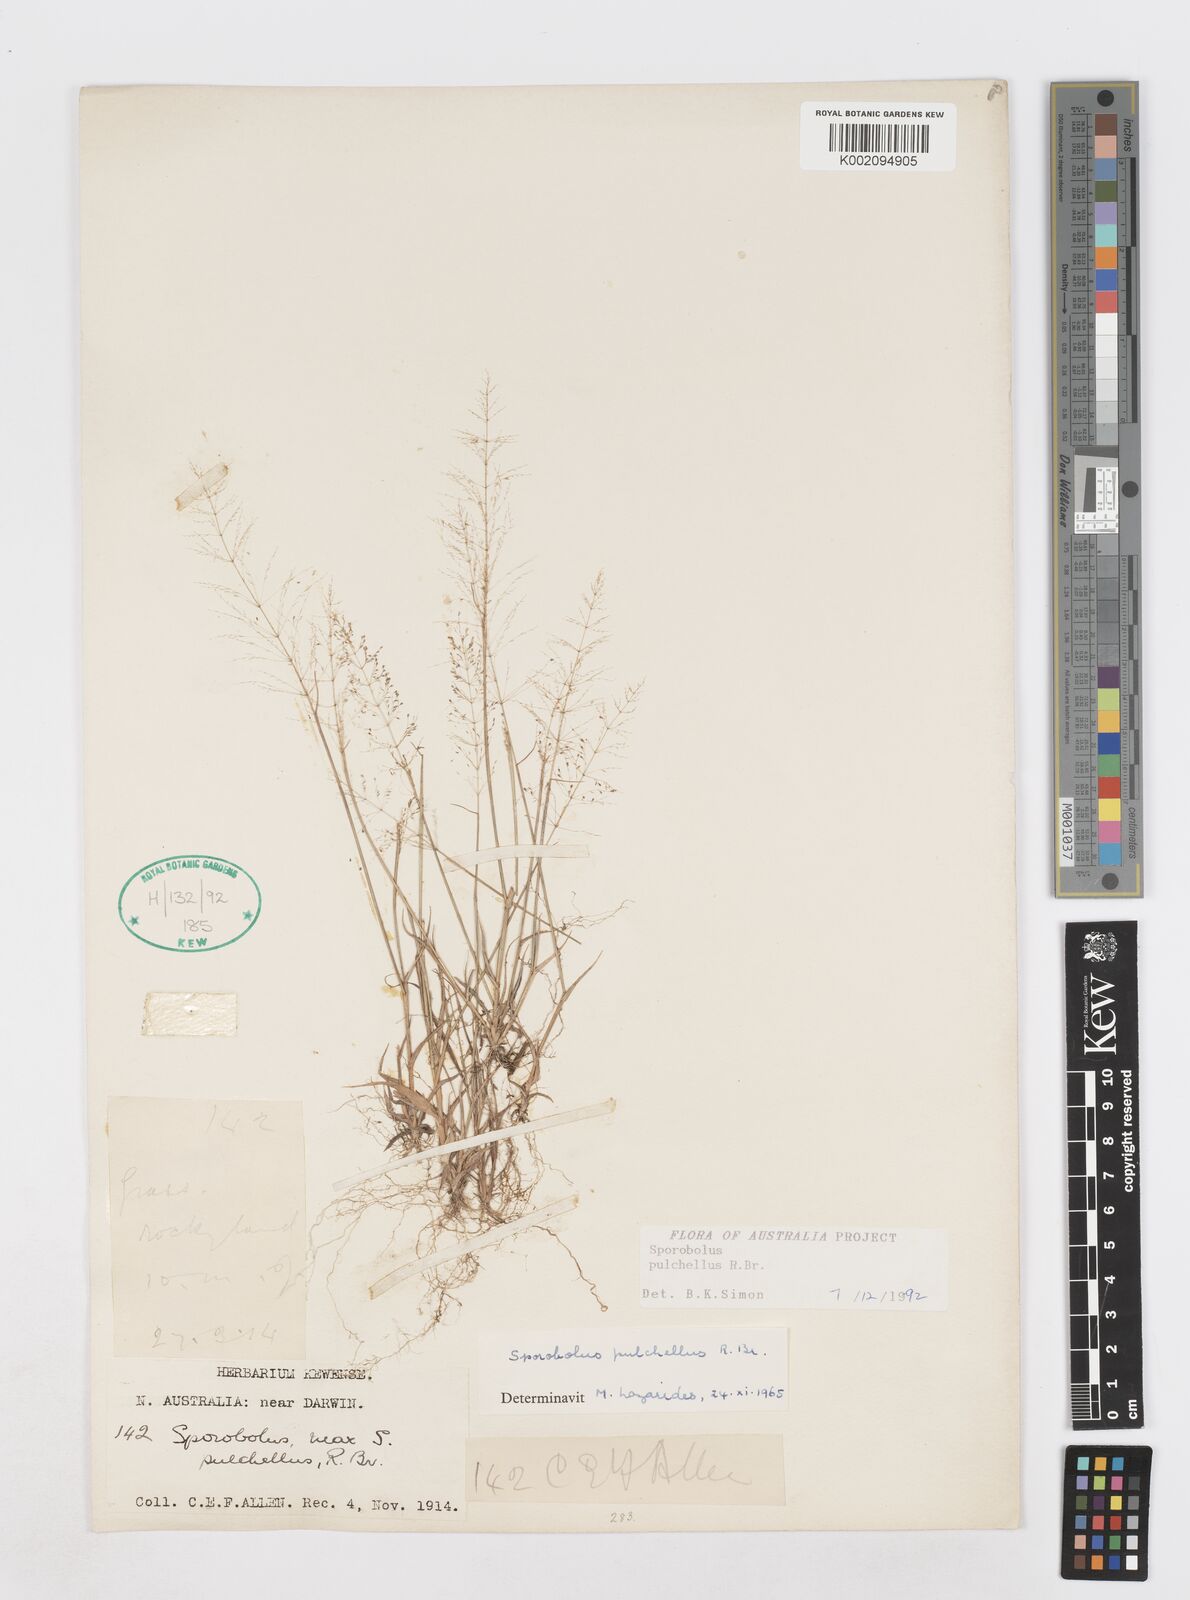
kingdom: Plantae
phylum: Tracheophyta
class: Liliopsida
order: Poales
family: Poaceae
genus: Sporobolus
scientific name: Sporobolus pulchellus
